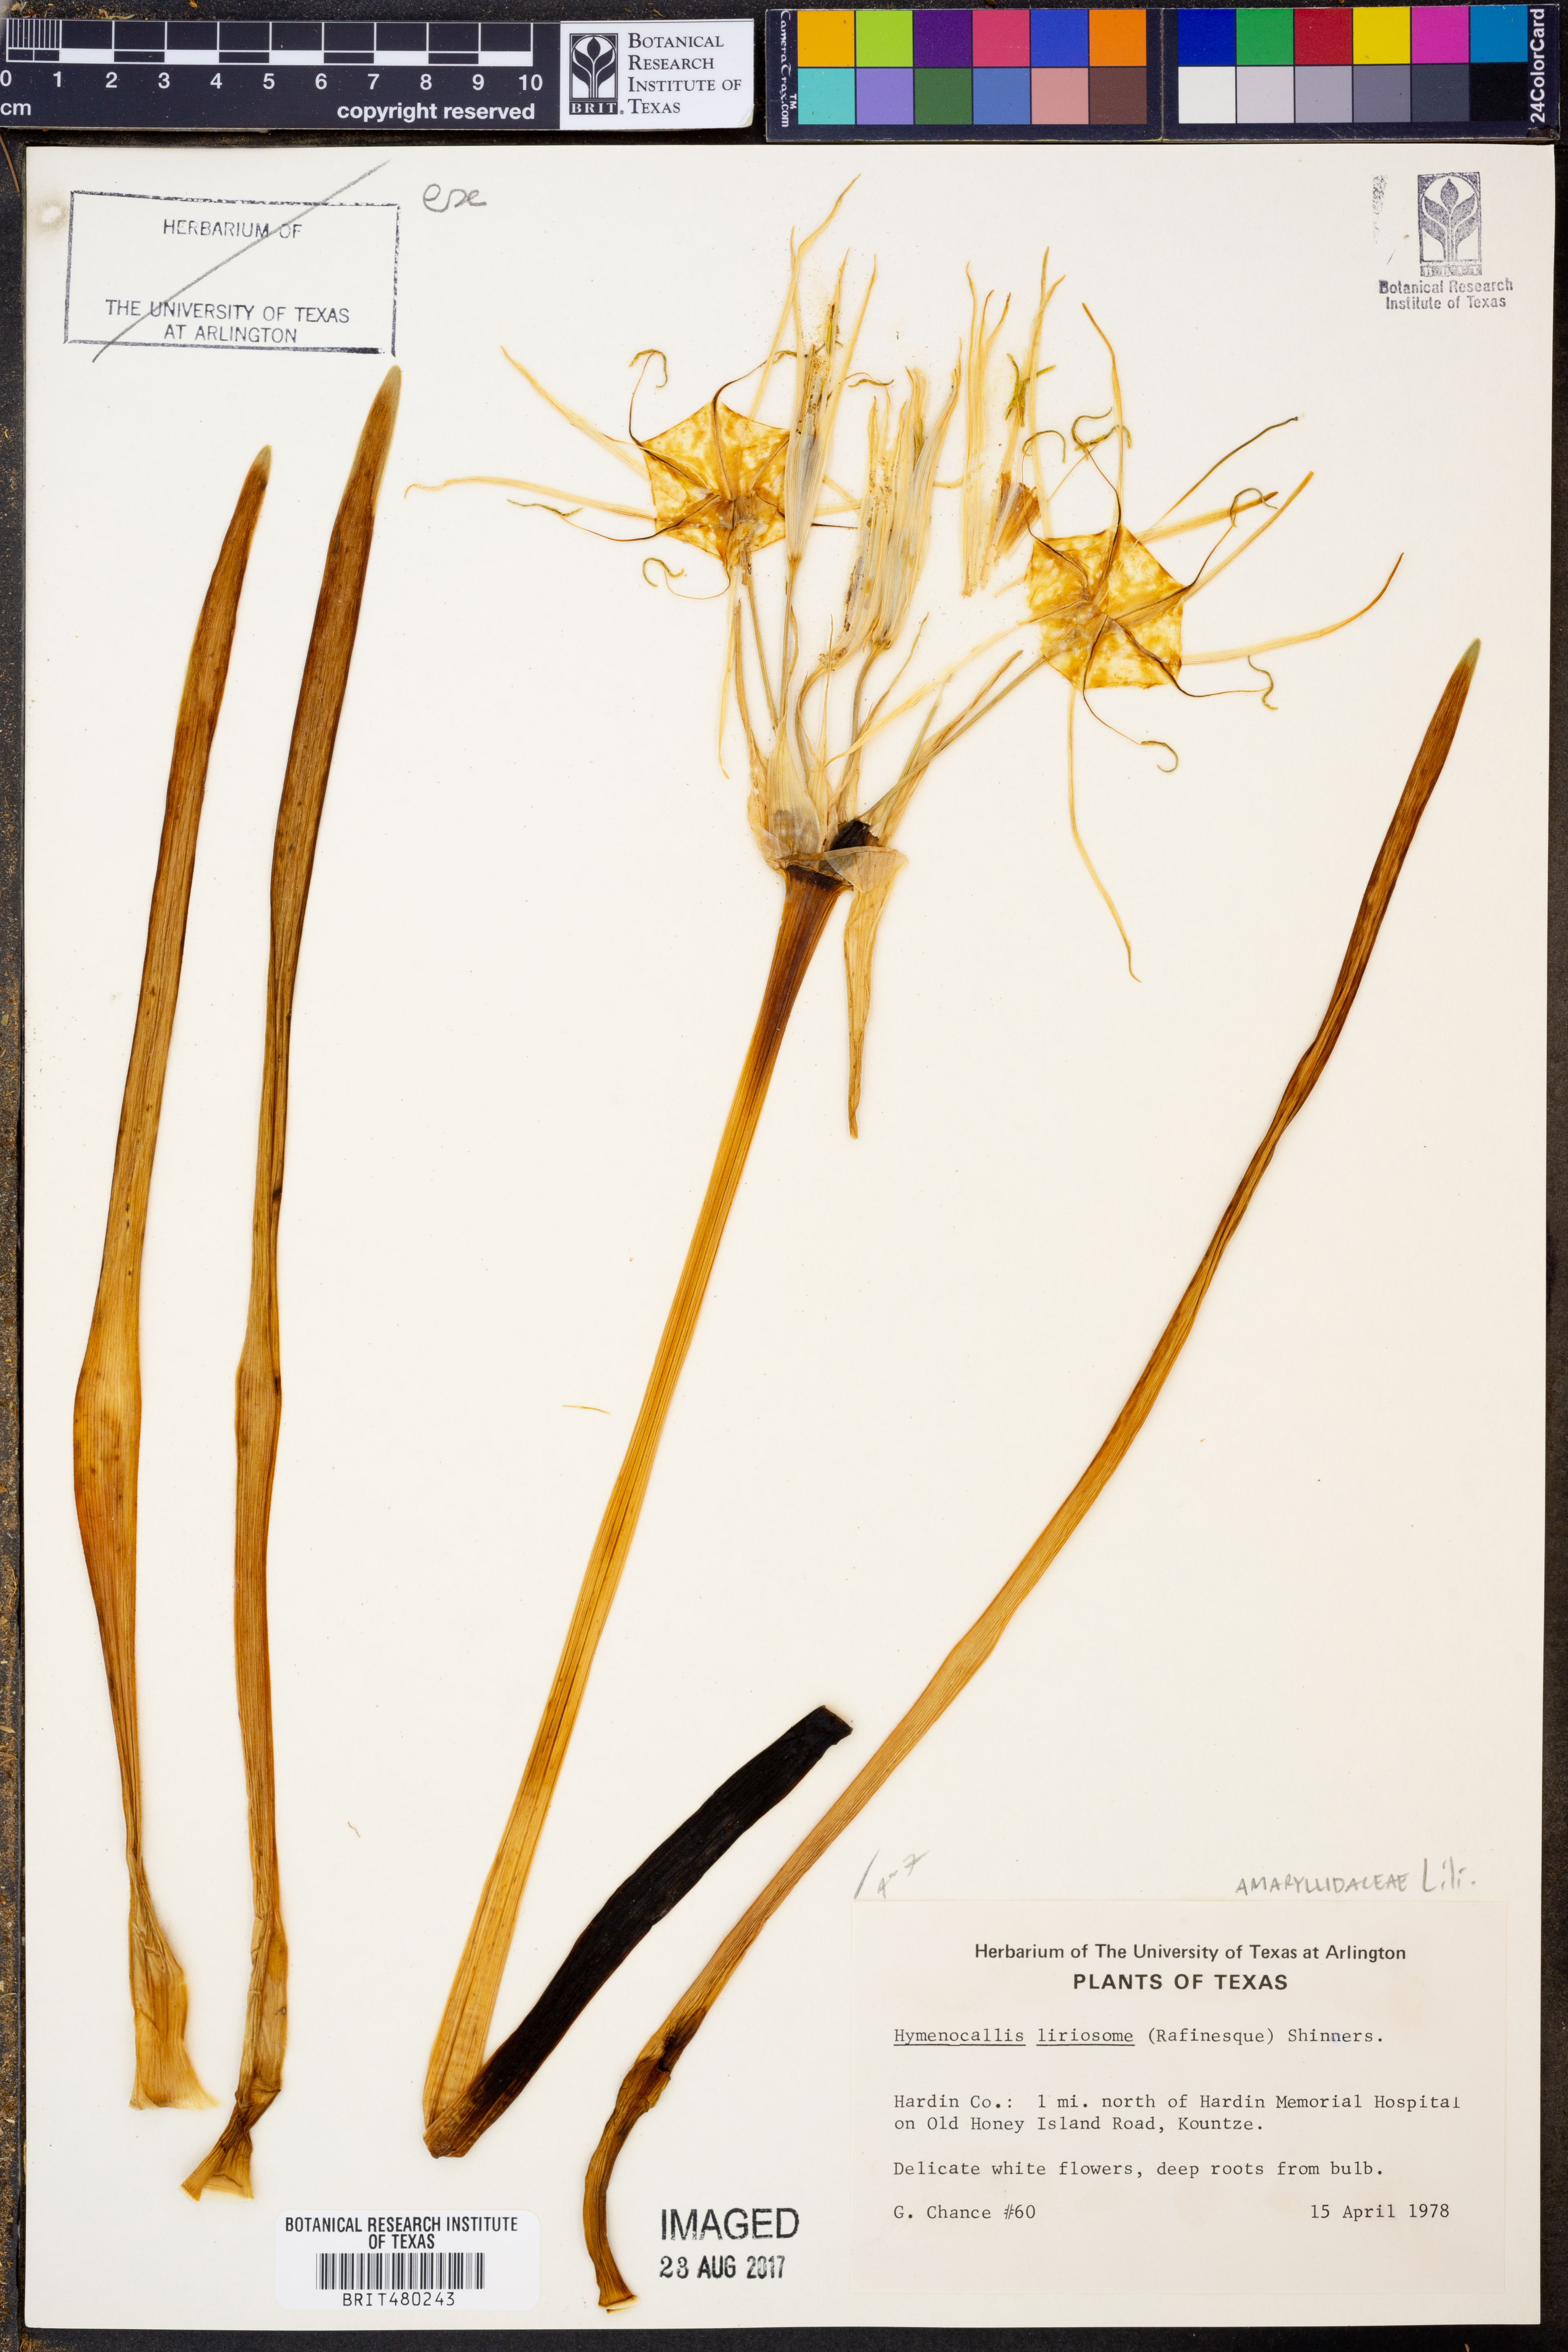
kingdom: Plantae
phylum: Tracheophyta
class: Liliopsida
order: Asparagales
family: Amaryllidaceae
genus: Hymenocallis
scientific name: Hymenocallis liriosme
